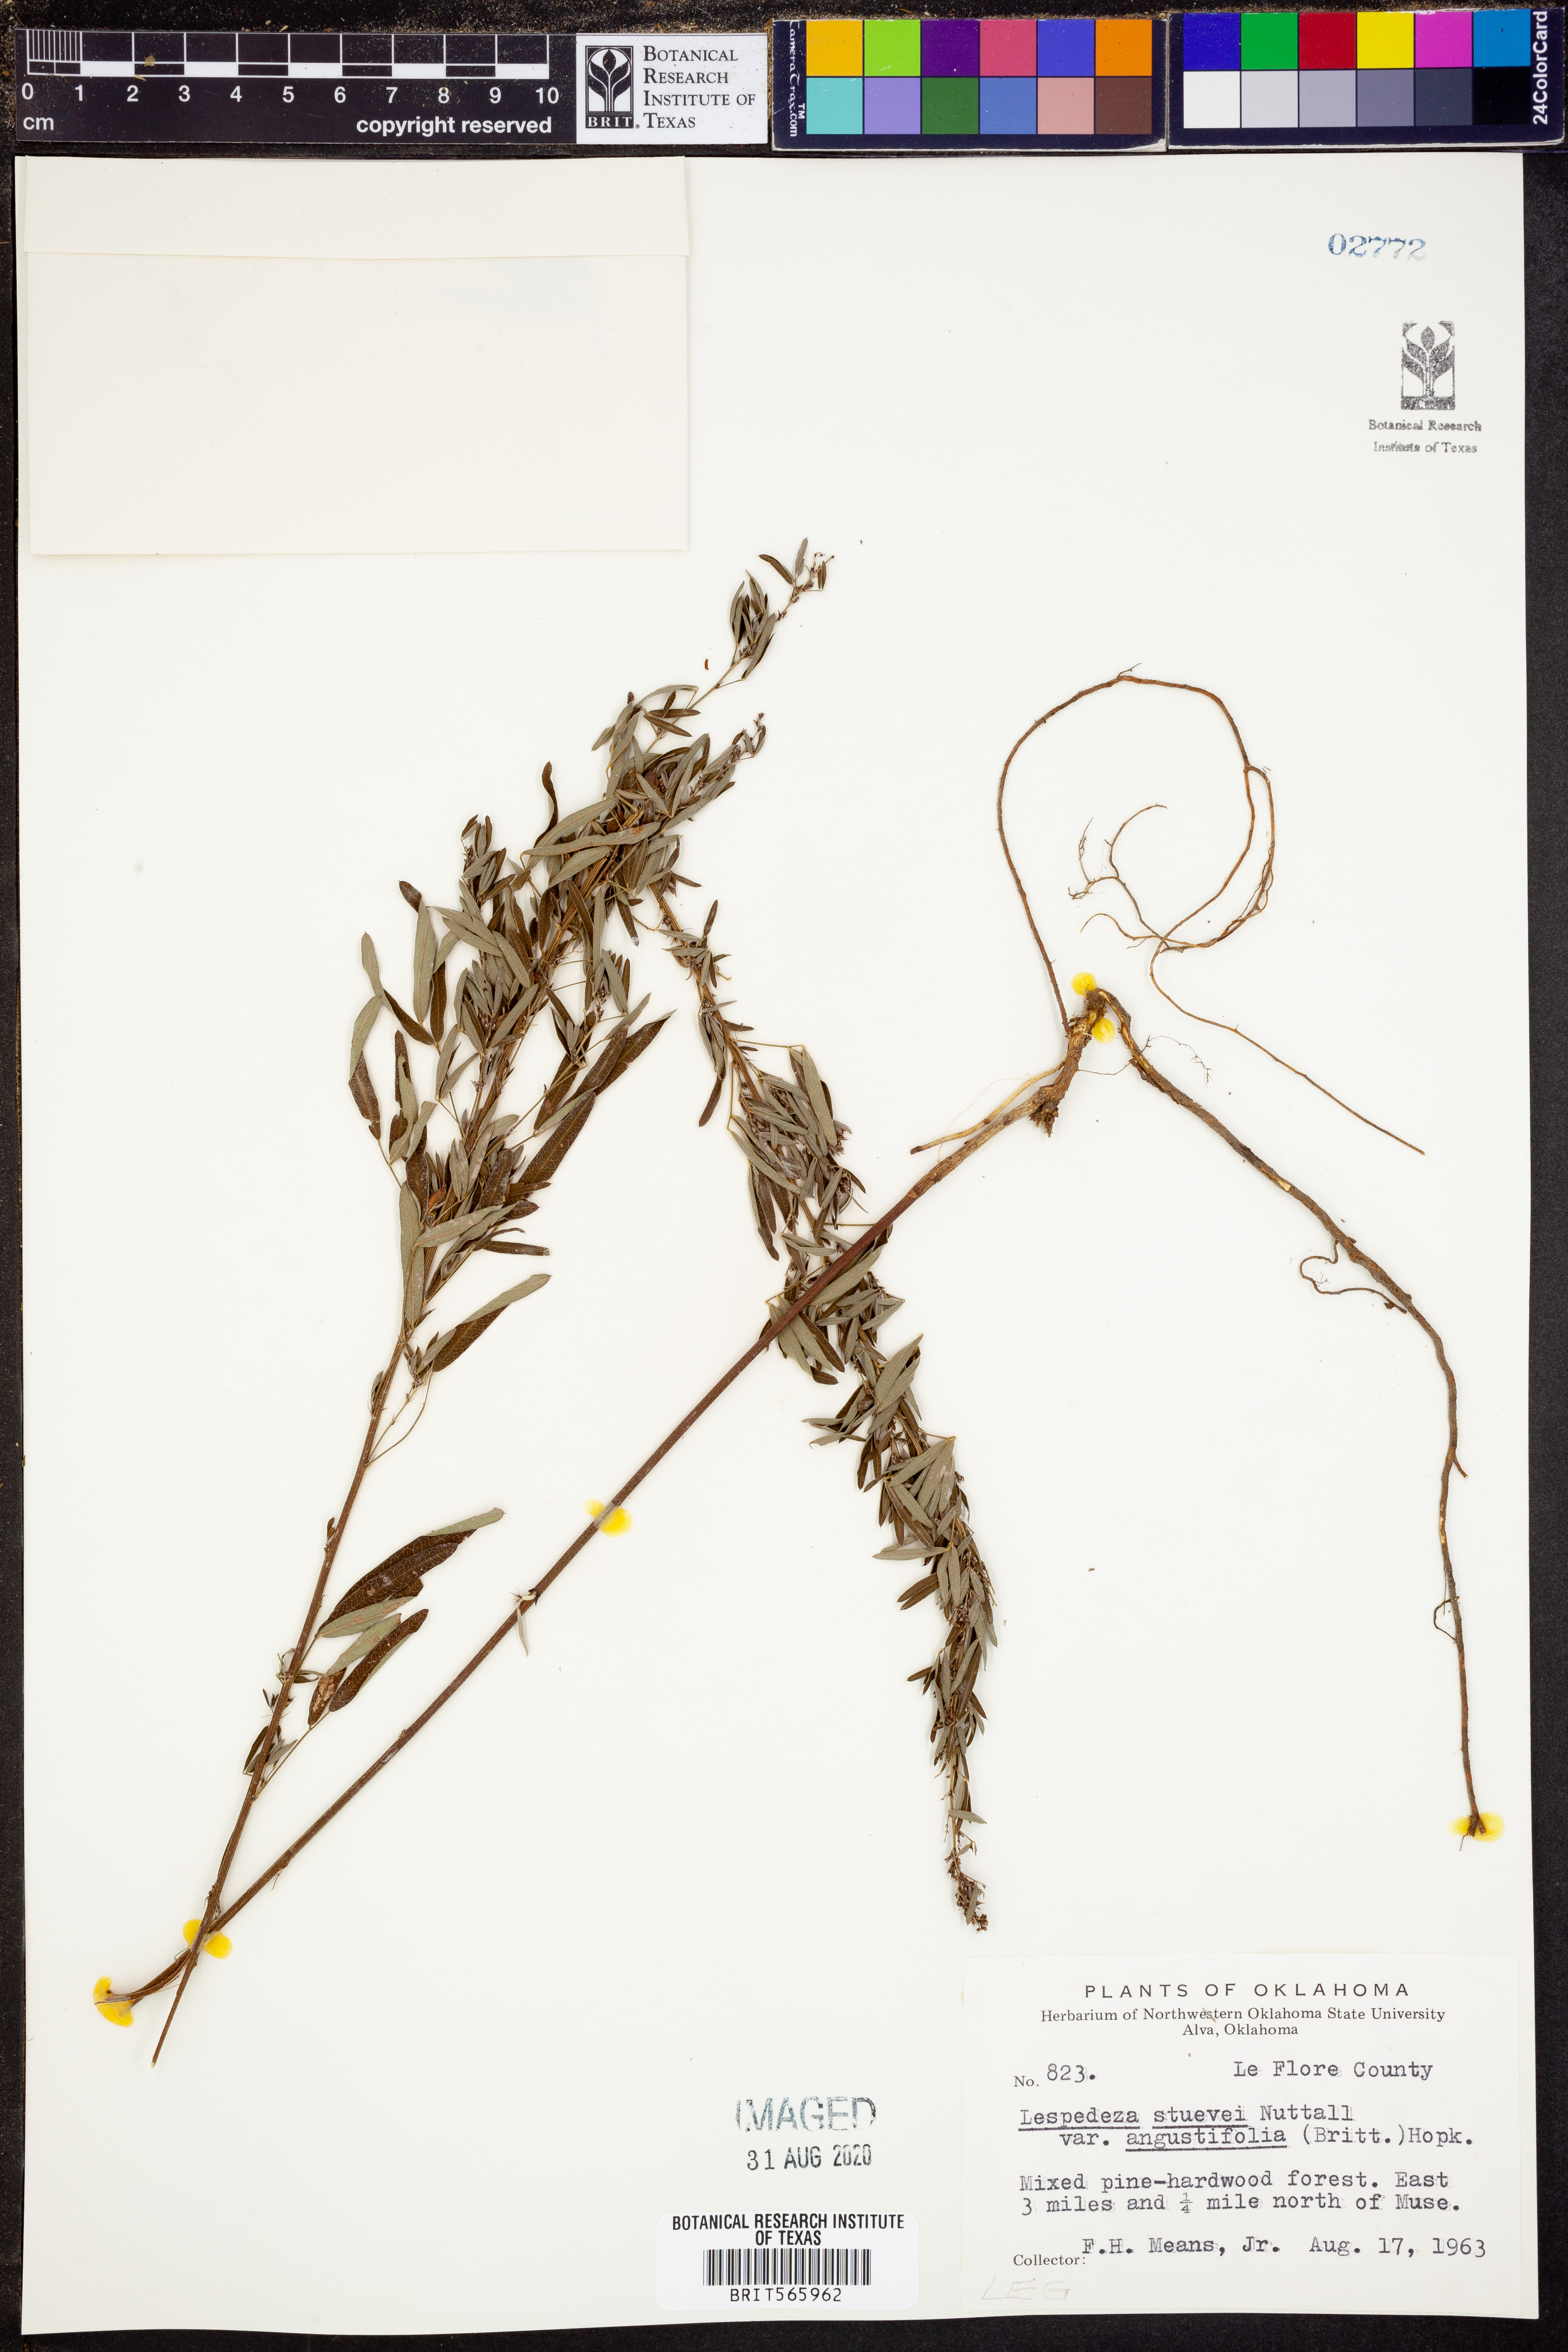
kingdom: Plantae
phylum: Tracheophyta
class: Magnoliopsida
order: Fabales
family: Fabaceae
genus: Lespedeza
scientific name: Lespedeza stuevei
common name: Tall bush-clover
